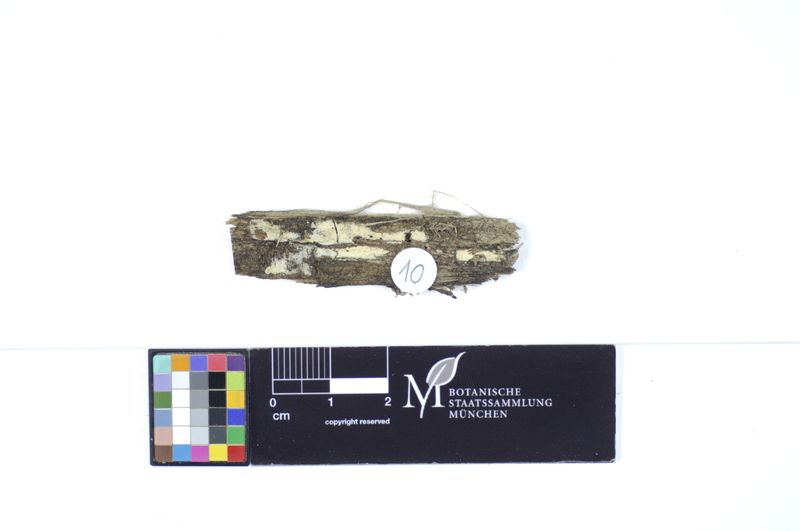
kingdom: Plantae
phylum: Tracheophyta
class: Magnoliopsida
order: Malpighiales
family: Salicaceae
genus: Populus
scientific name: Populus
